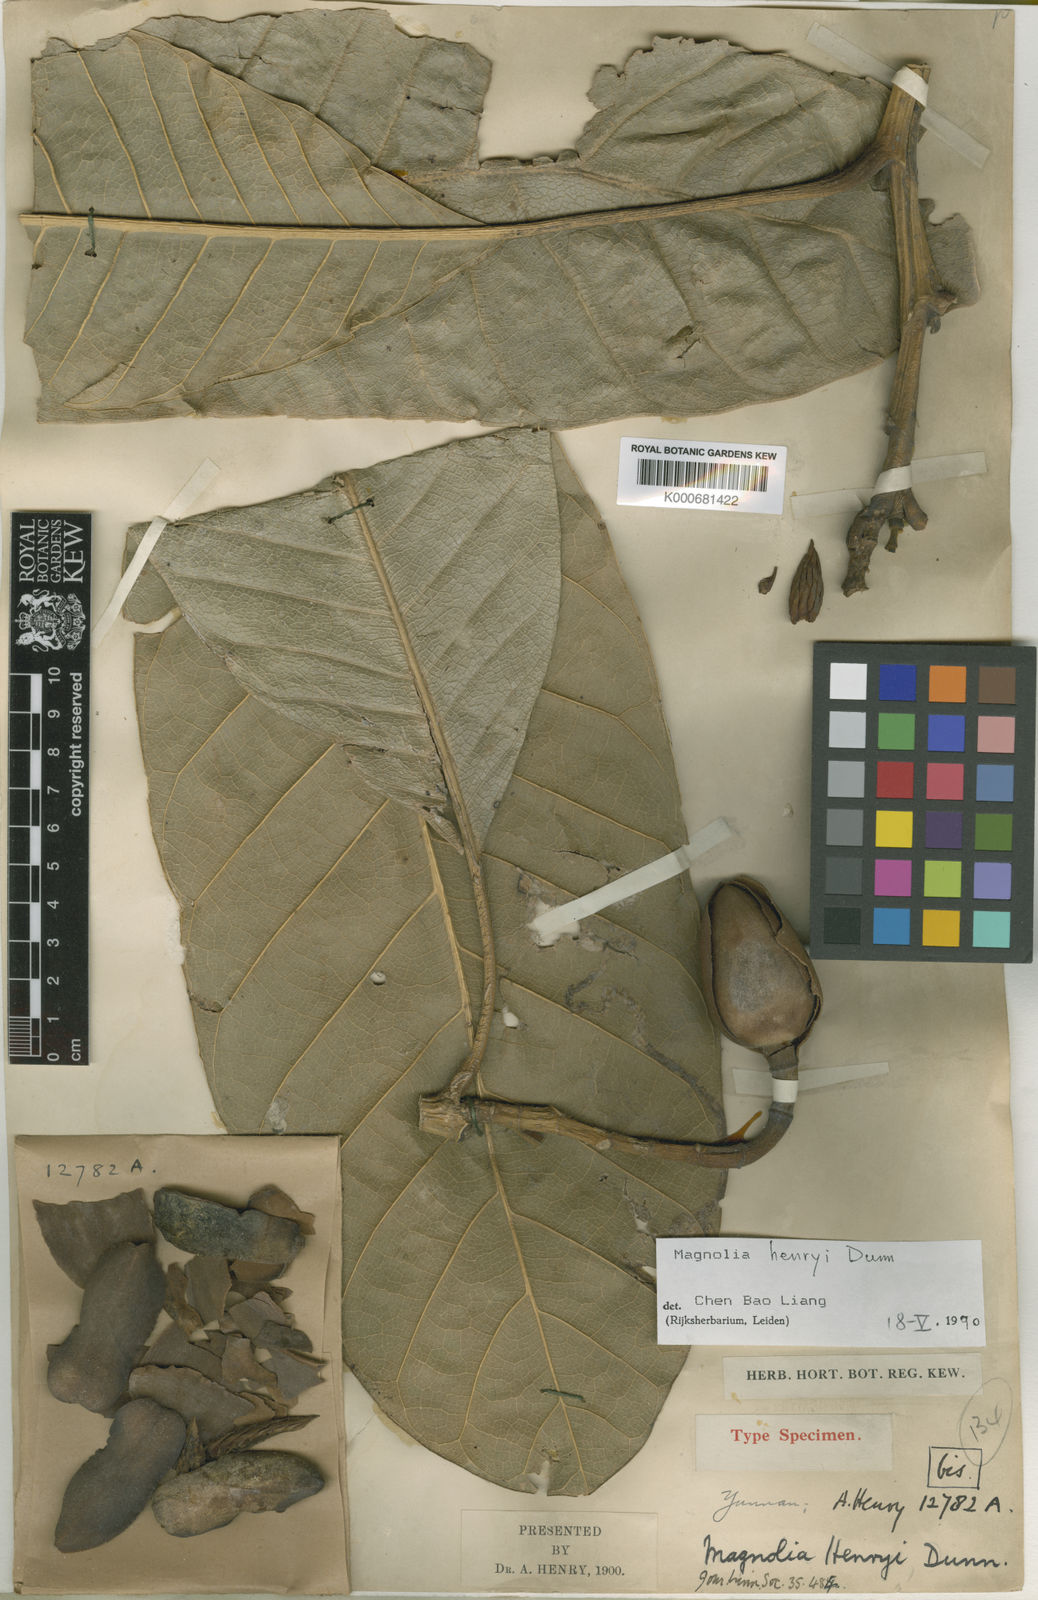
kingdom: Plantae
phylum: Tracheophyta
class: Magnoliopsida
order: Magnoliales
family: Magnoliaceae
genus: Magnolia
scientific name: Magnolia henryi
